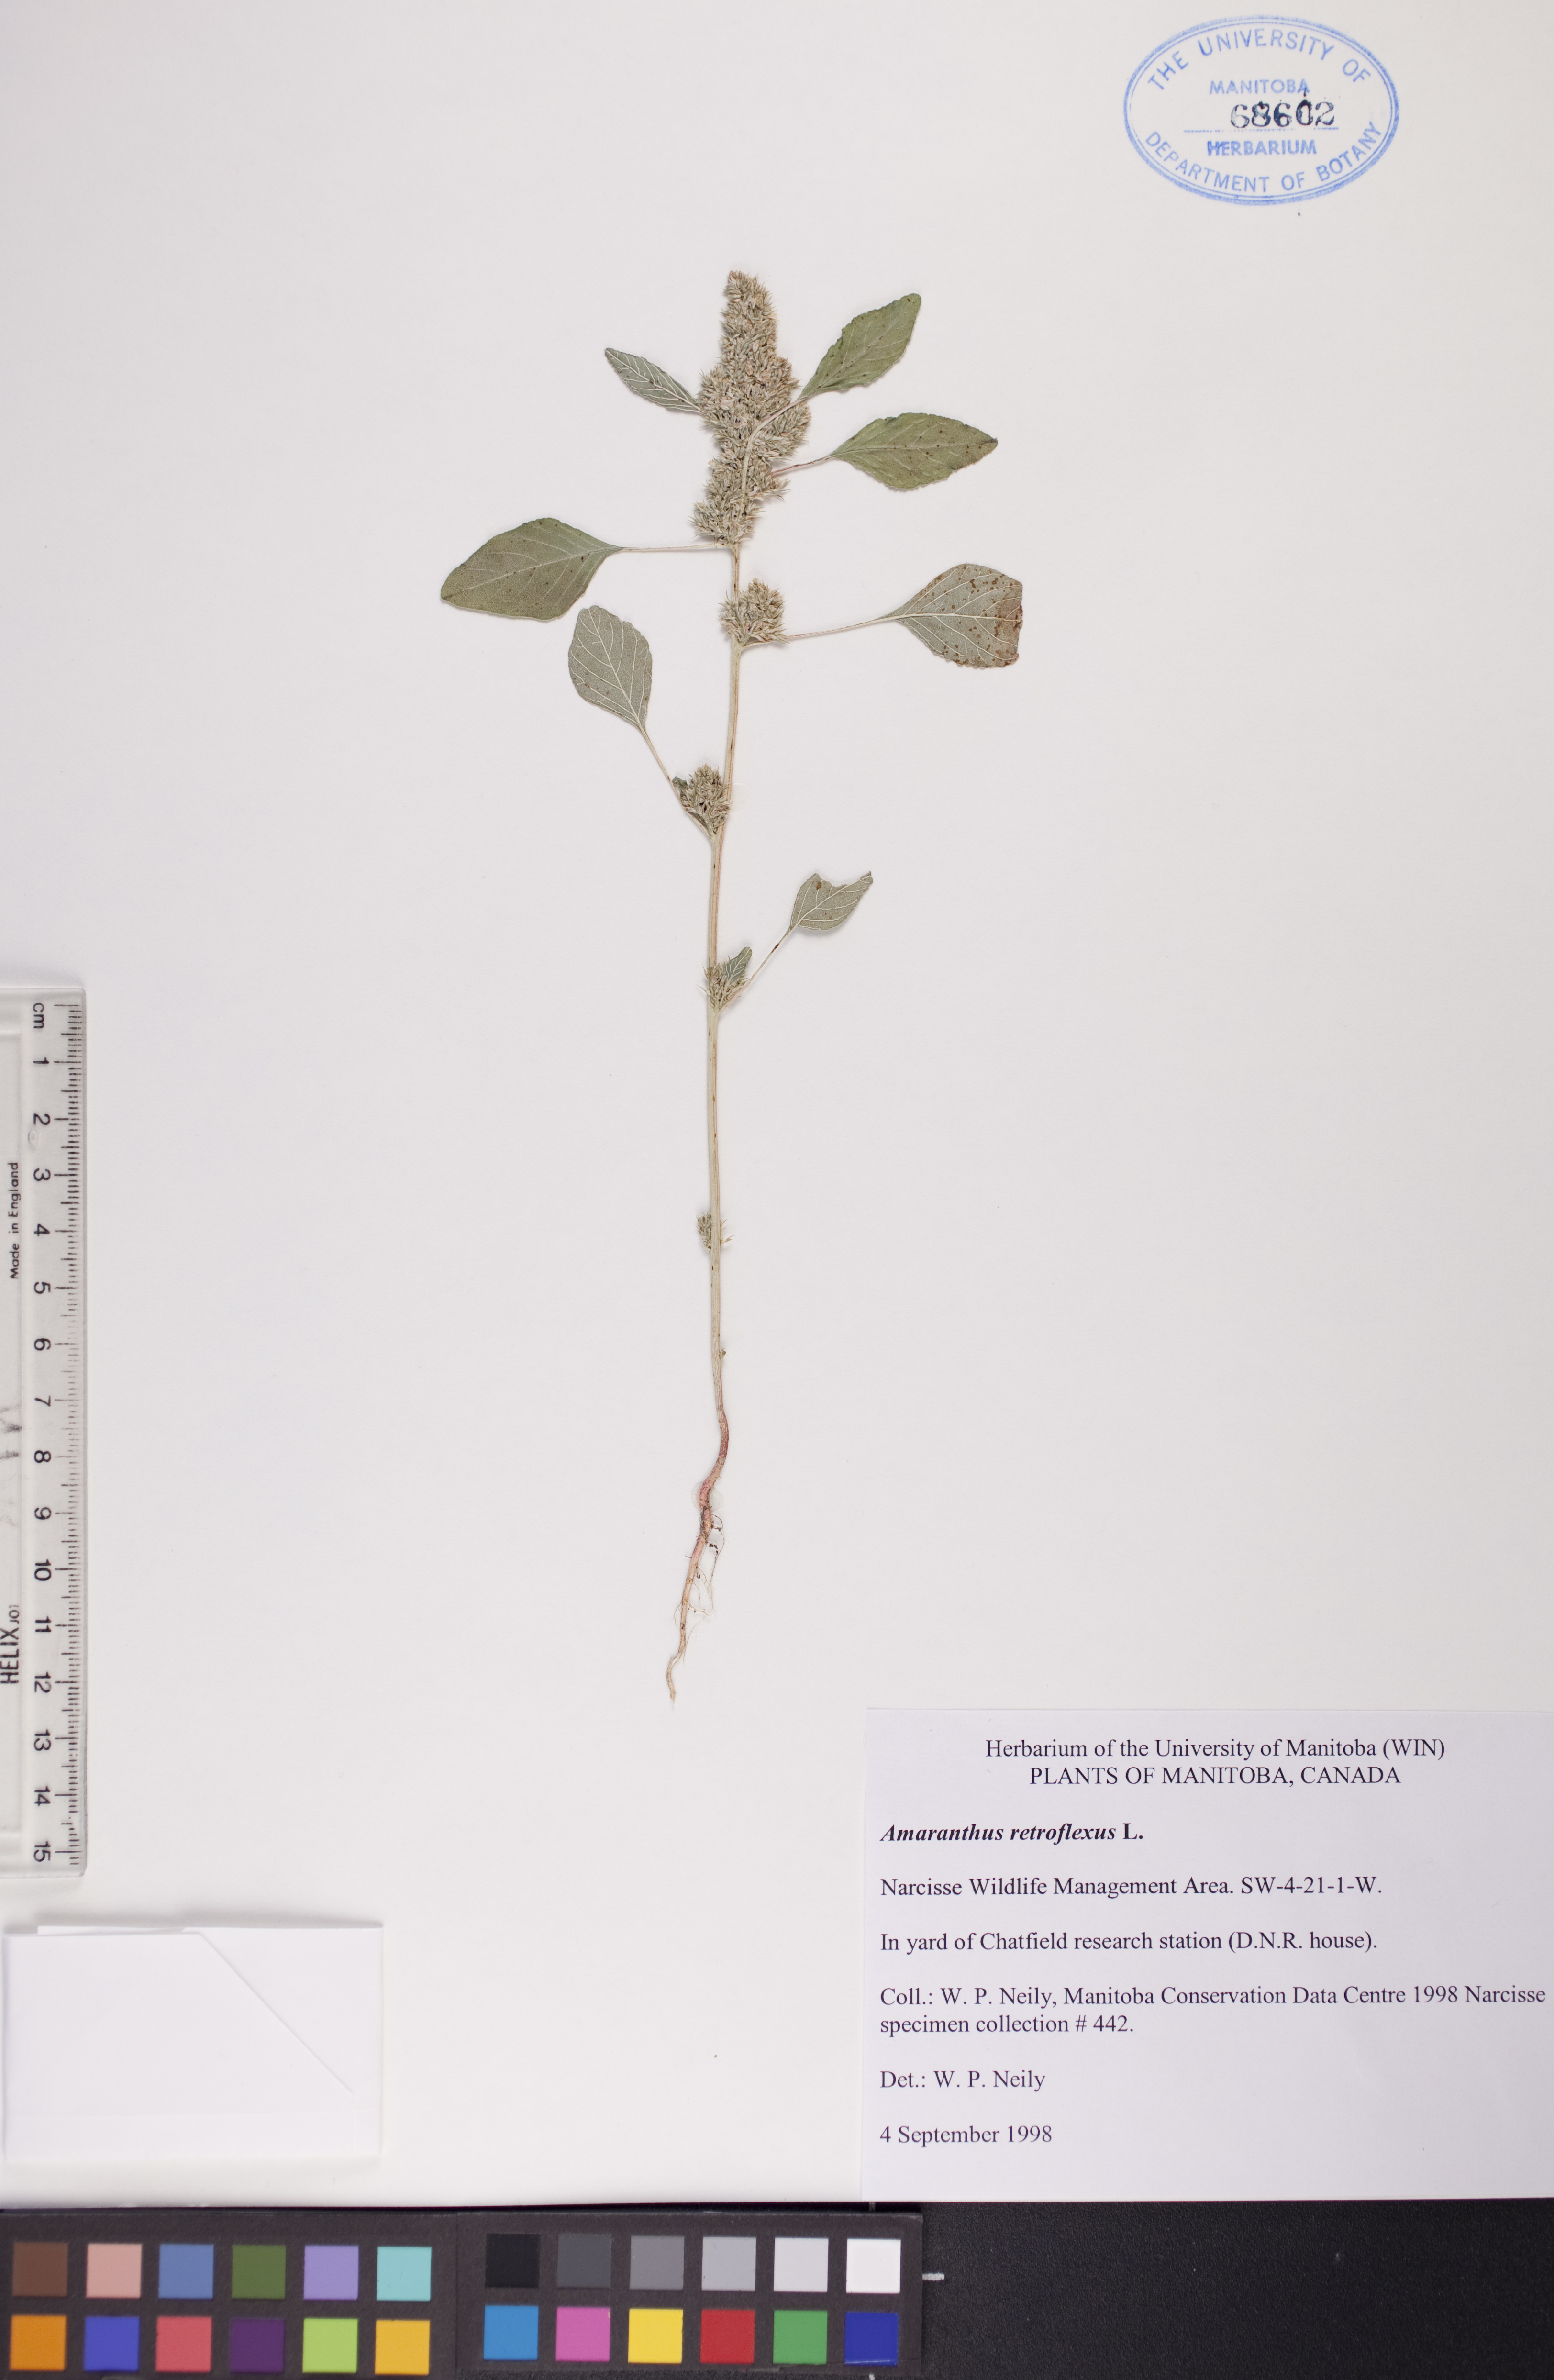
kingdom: Plantae
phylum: Tracheophyta
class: Magnoliopsida
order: Caryophyllales
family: Amaranthaceae
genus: Amaranthus
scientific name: Amaranthus retroflexus
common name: Redroot amaranth
